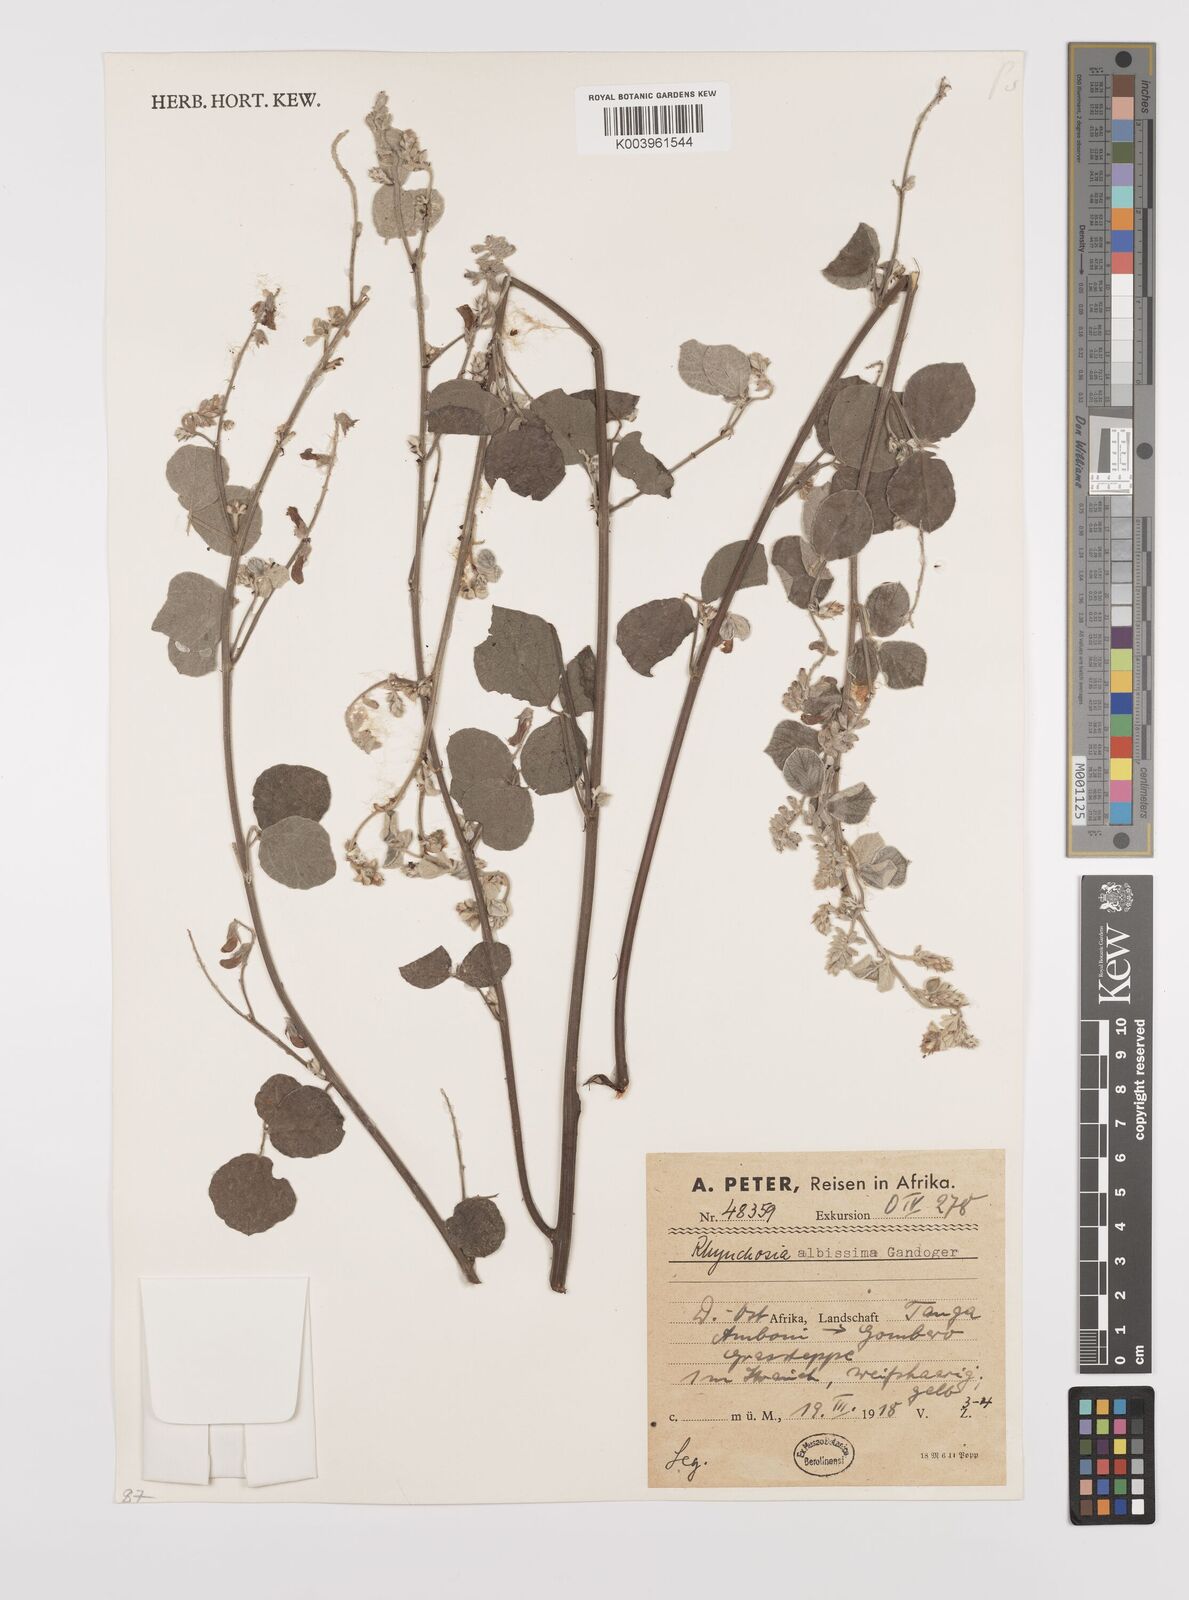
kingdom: Plantae
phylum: Tracheophyta
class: Magnoliopsida
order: Fabales
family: Fabaceae
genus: Rhynchosia
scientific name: Rhynchosia albissima
